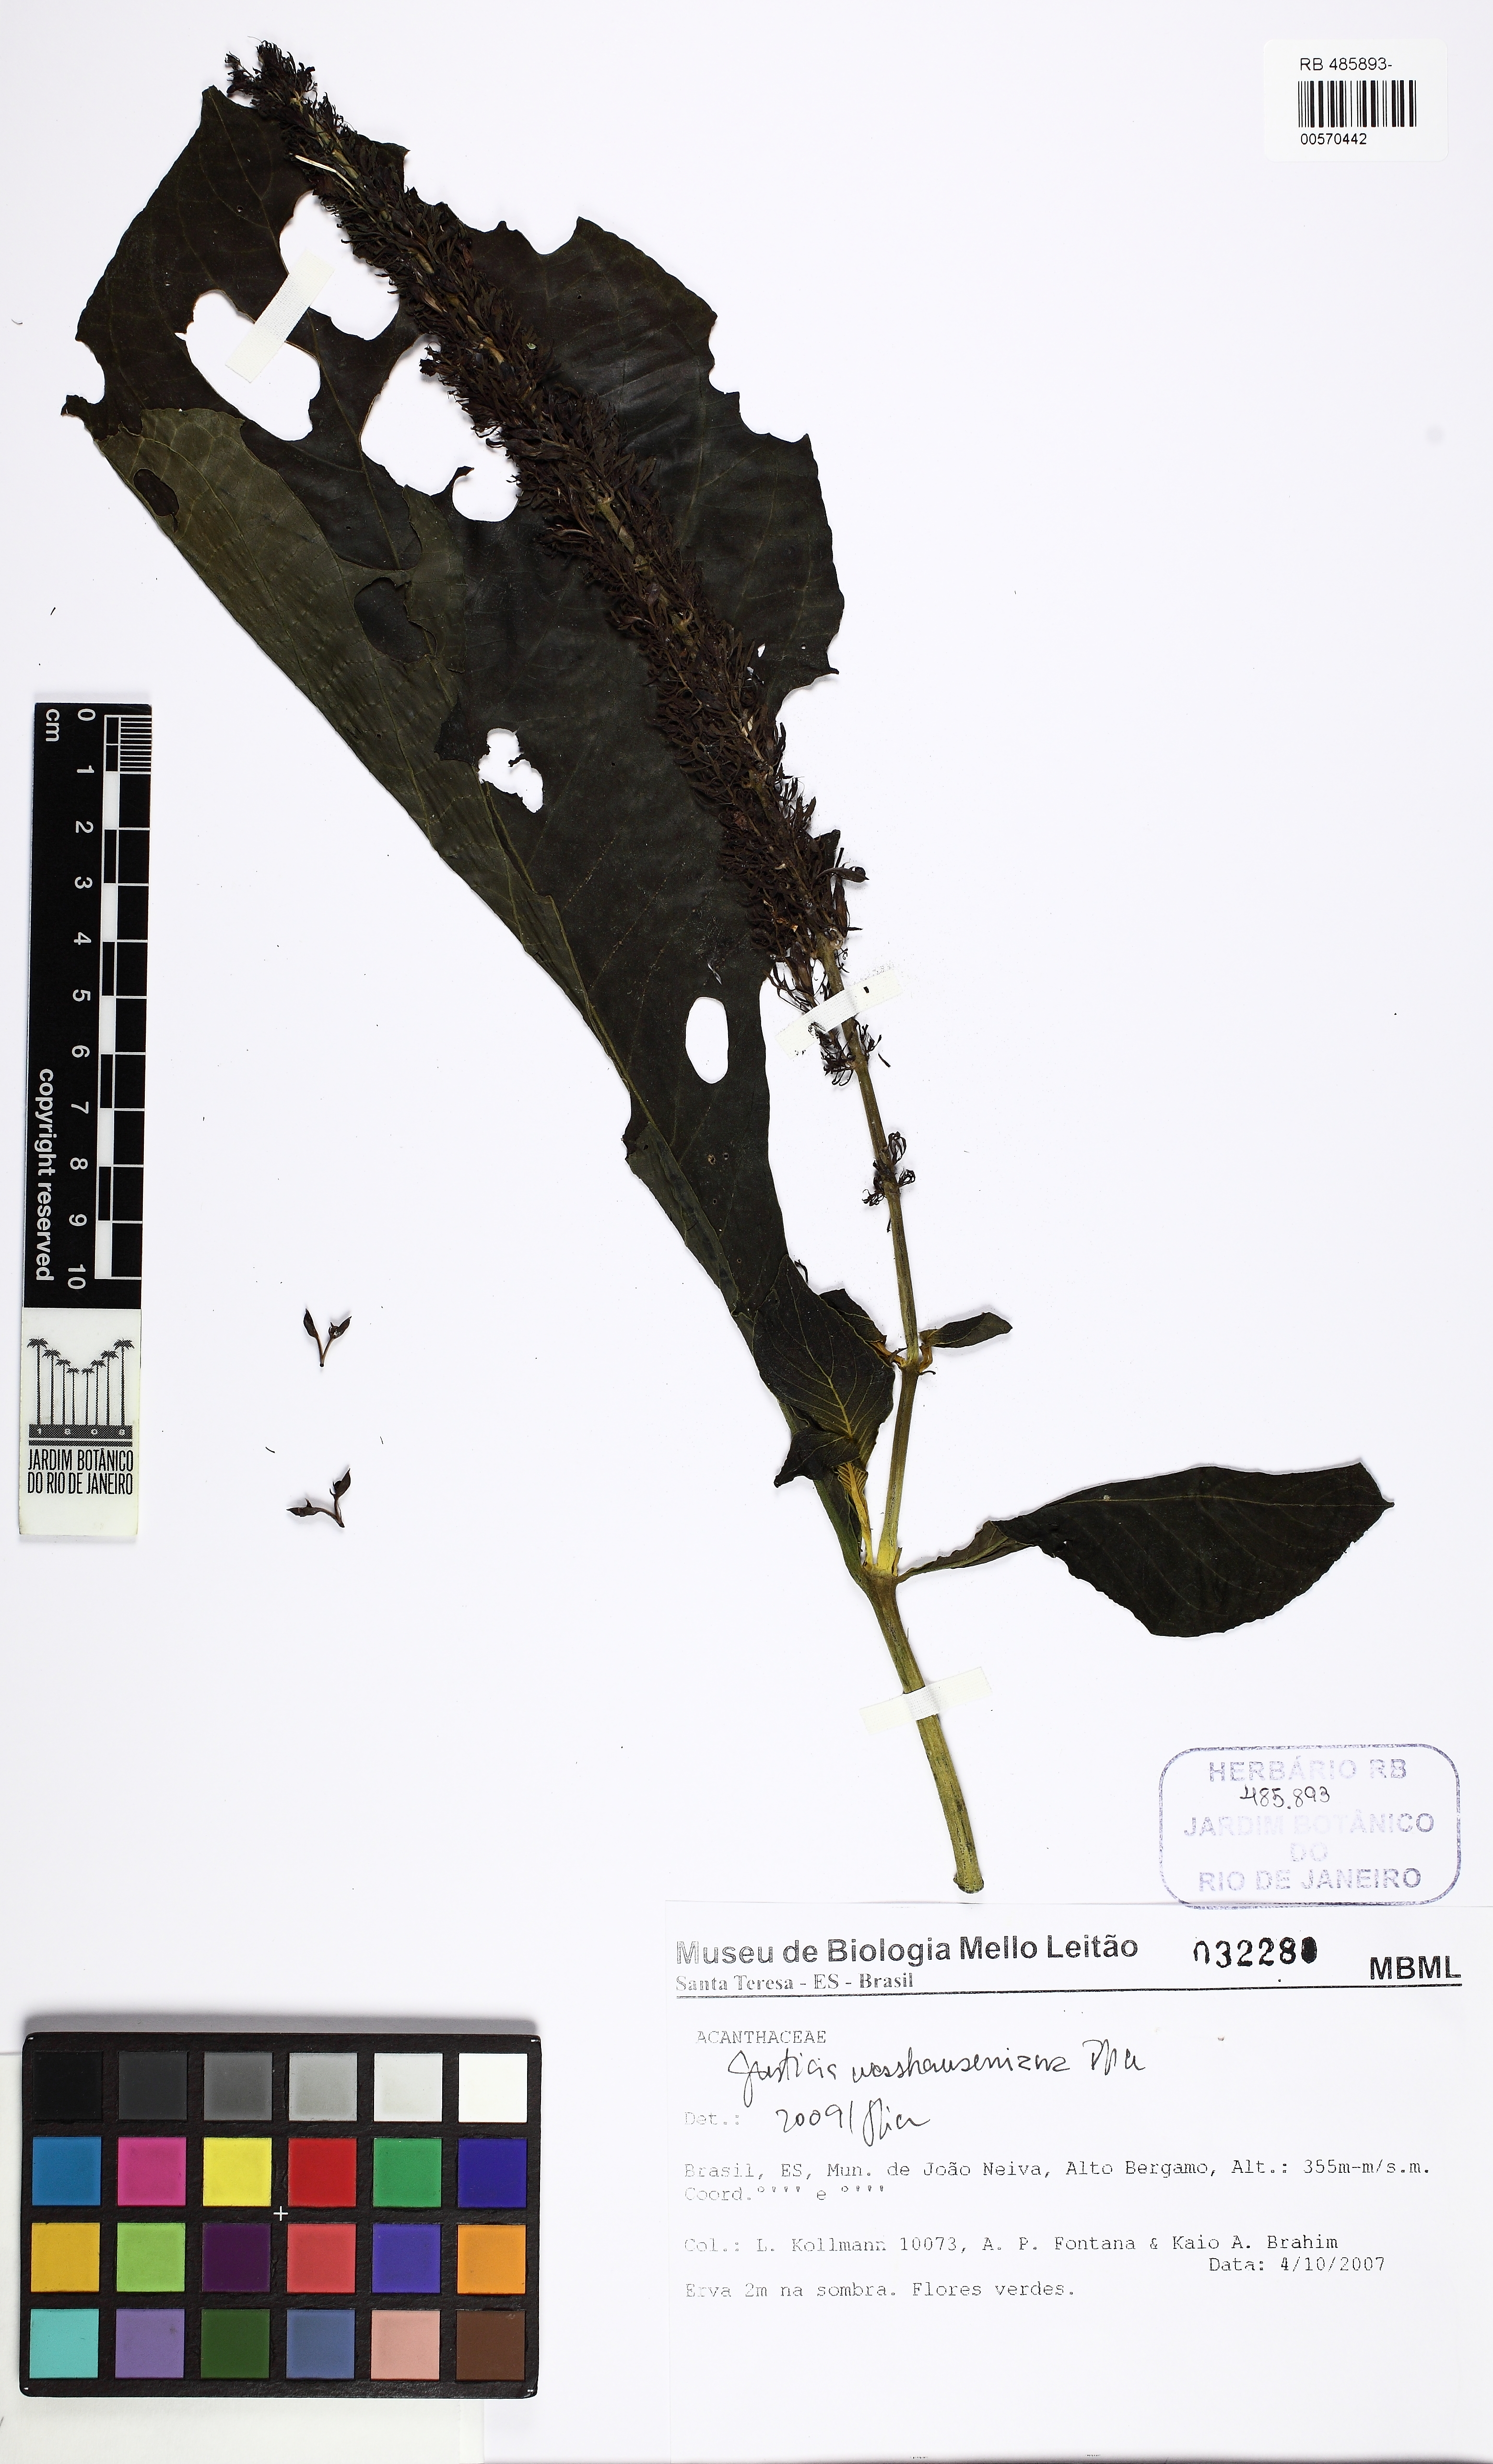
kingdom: Plantae
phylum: Tracheophyta
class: Magnoliopsida
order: Lamiales
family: Acanthaceae
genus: Justicia
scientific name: Justicia
